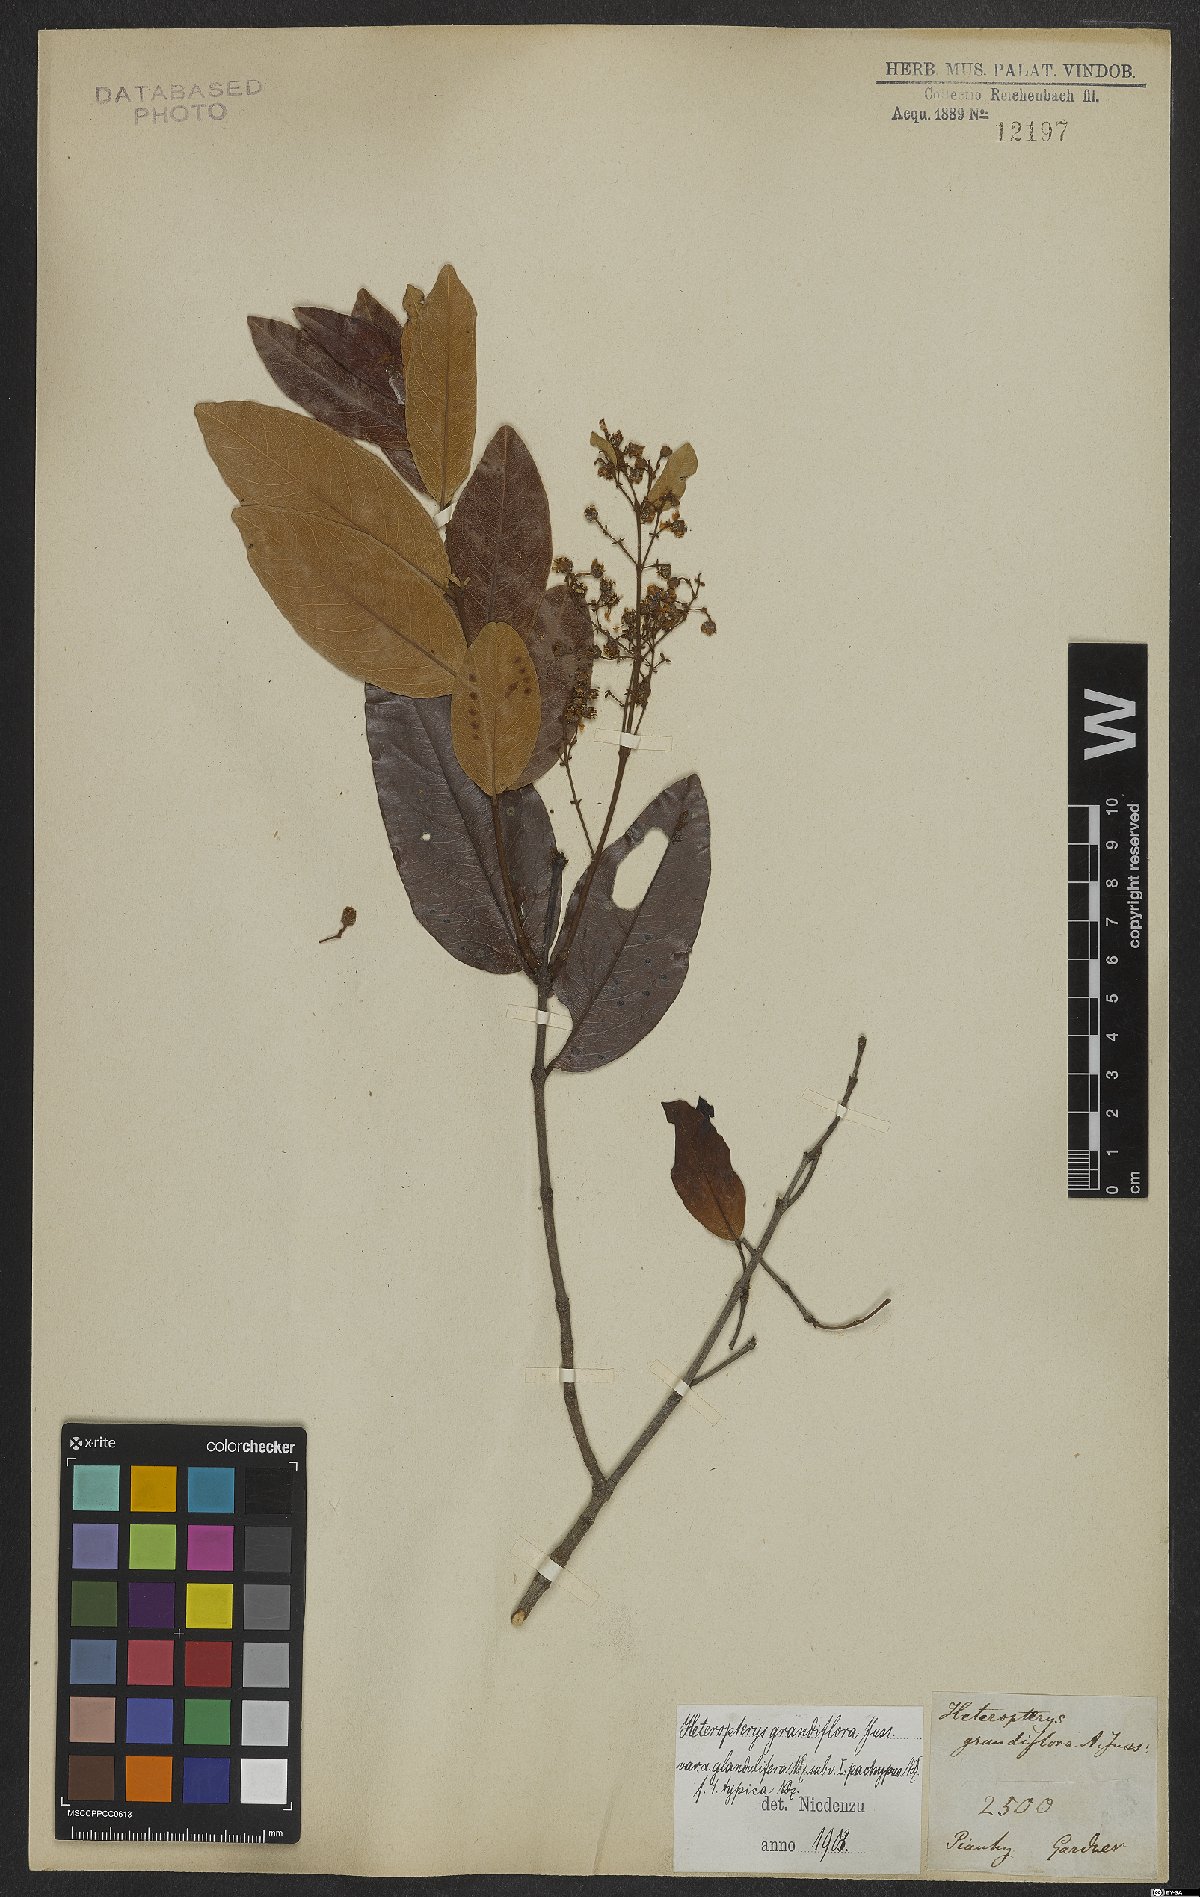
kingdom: Plantae
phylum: Tracheophyta
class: Magnoliopsida
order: Malpighiales
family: Malpighiaceae
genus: Heteropterys
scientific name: Heteropterys grandiflora
